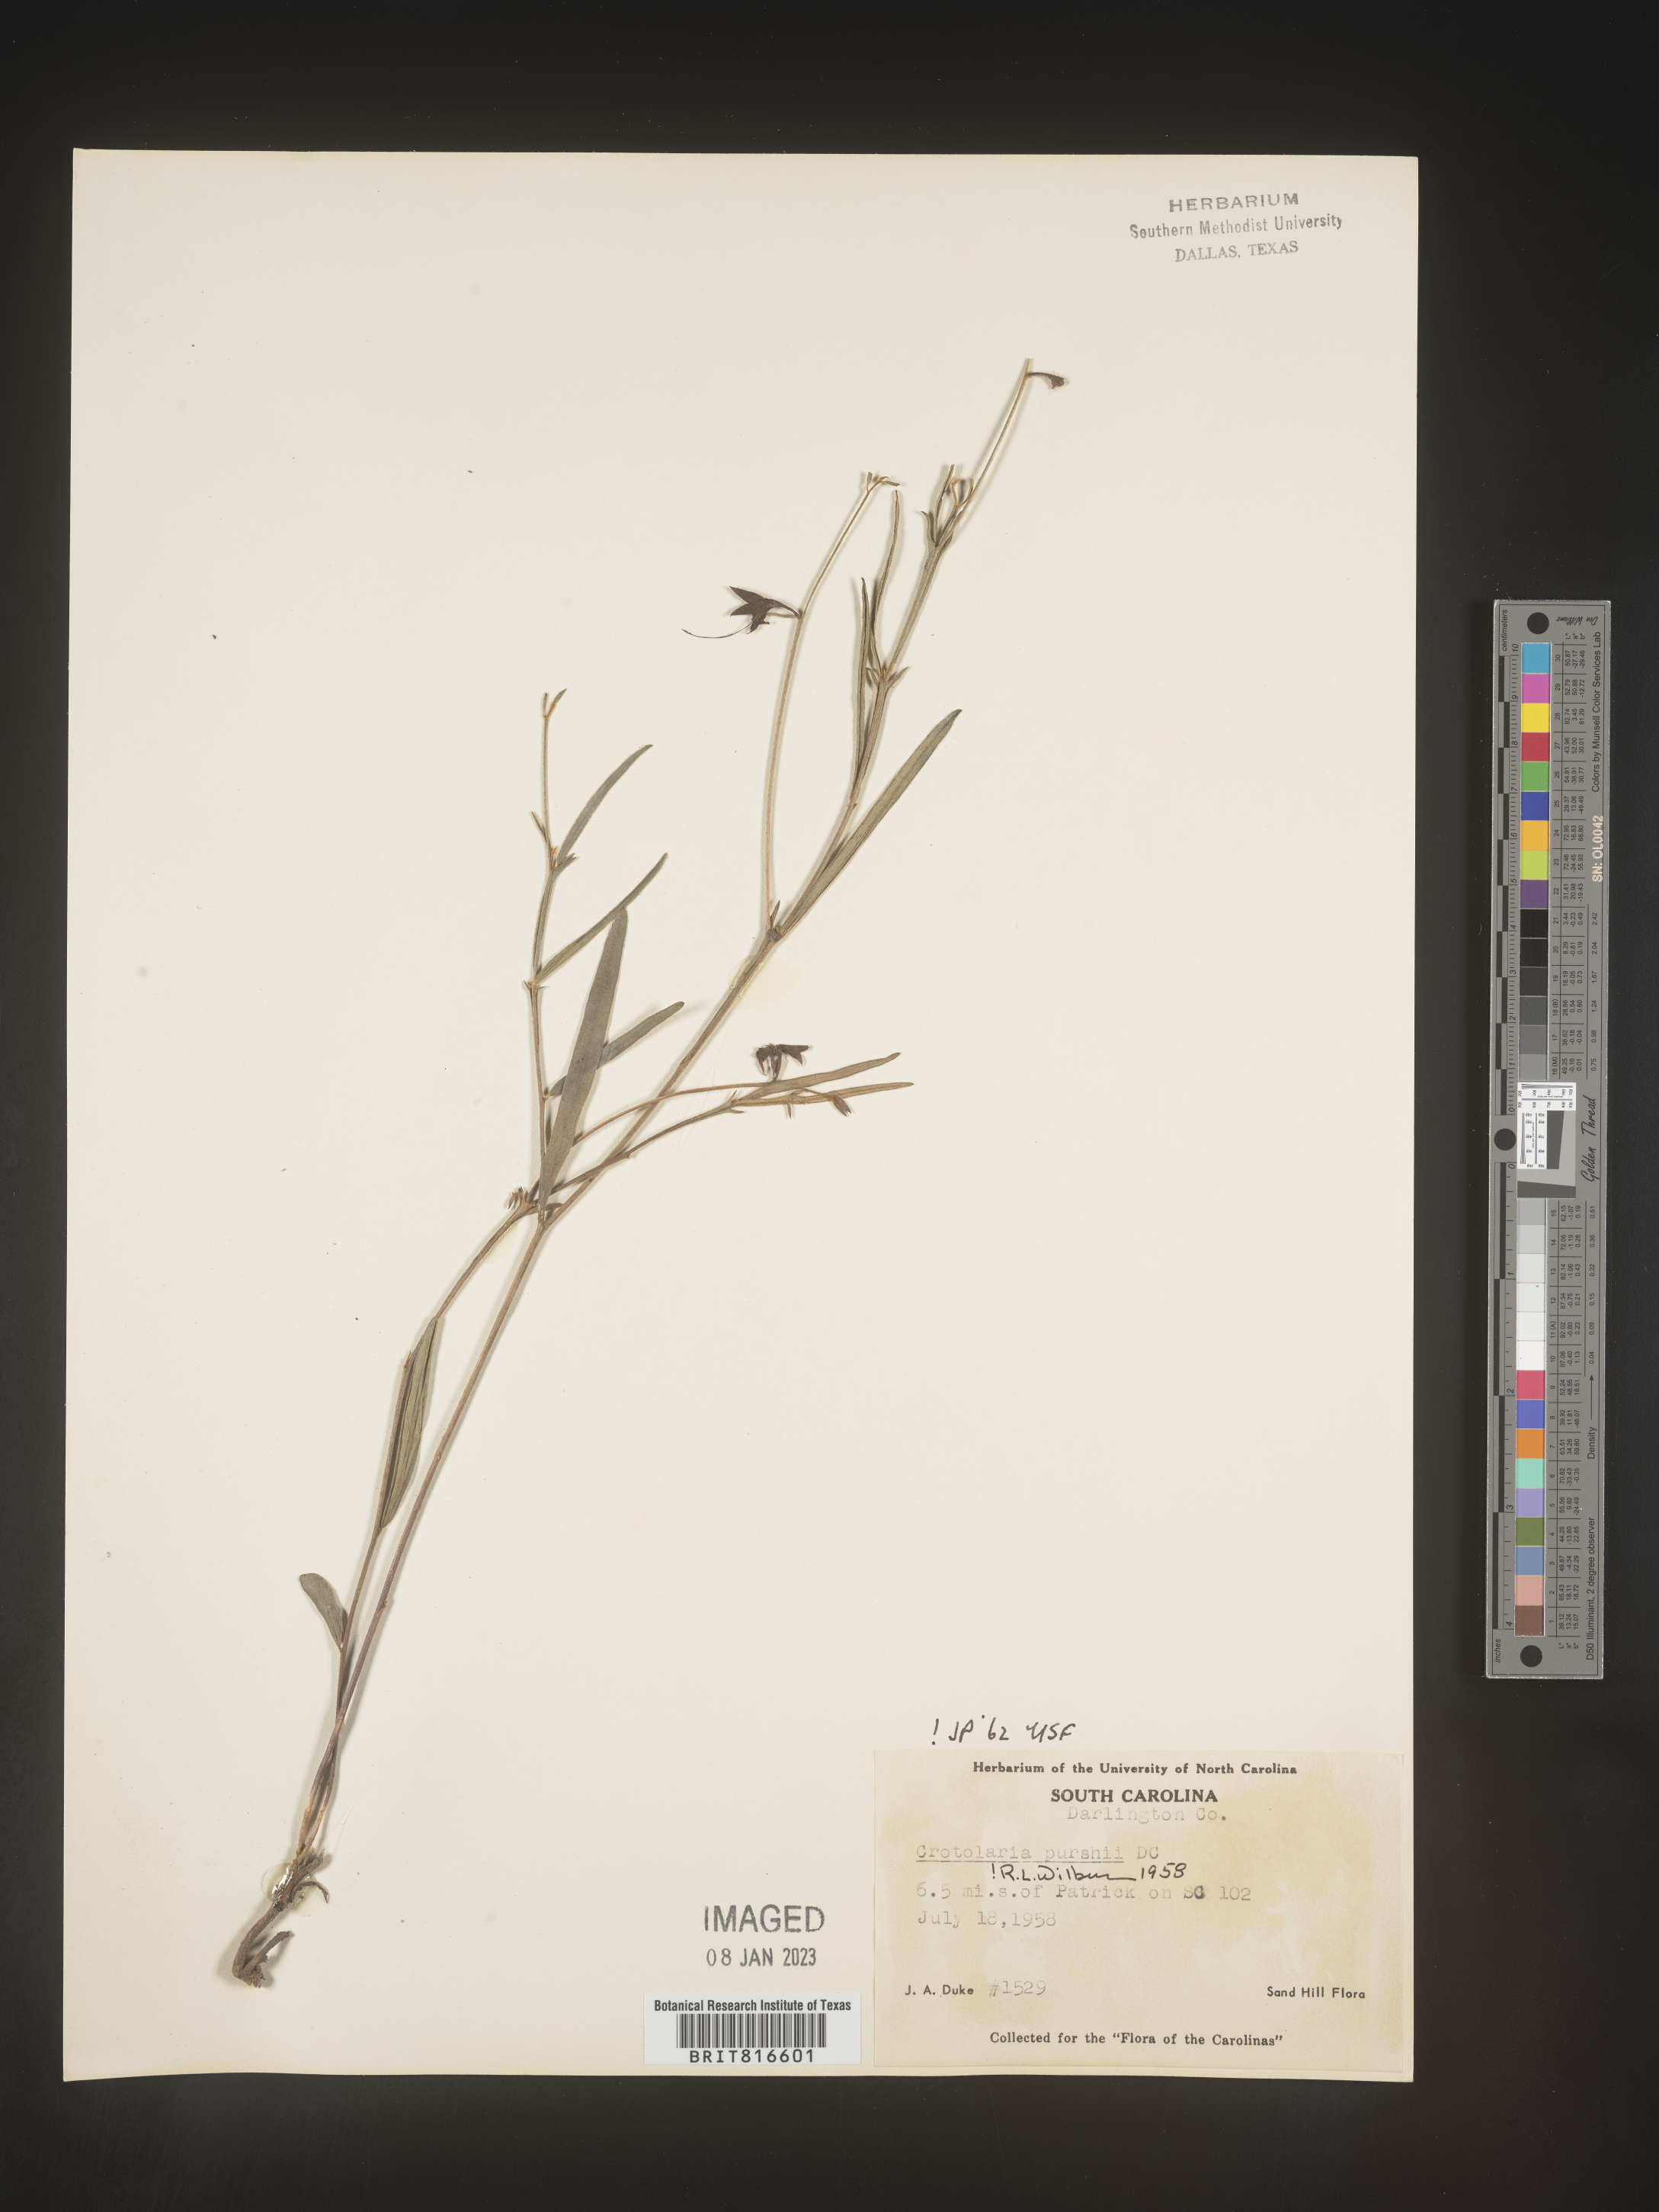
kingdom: Plantae
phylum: Tracheophyta
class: Magnoliopsida
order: Fabales
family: Fabaceae
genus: Crotalaria
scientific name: Crotalaria purshii
